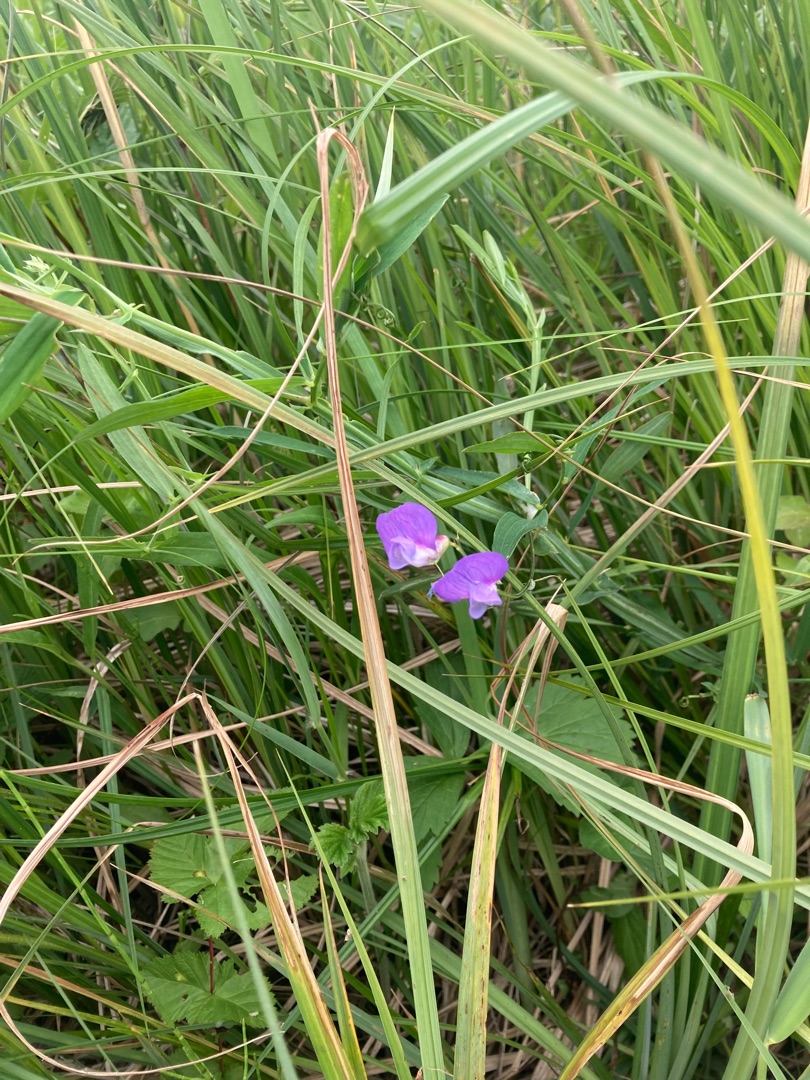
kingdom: Plantae
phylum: Tracheophyta
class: Magnoliopsida
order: Fabales
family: Fabaceae
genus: Lathyrus
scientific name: Lathyrus palustris
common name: Kær-fladbælg
